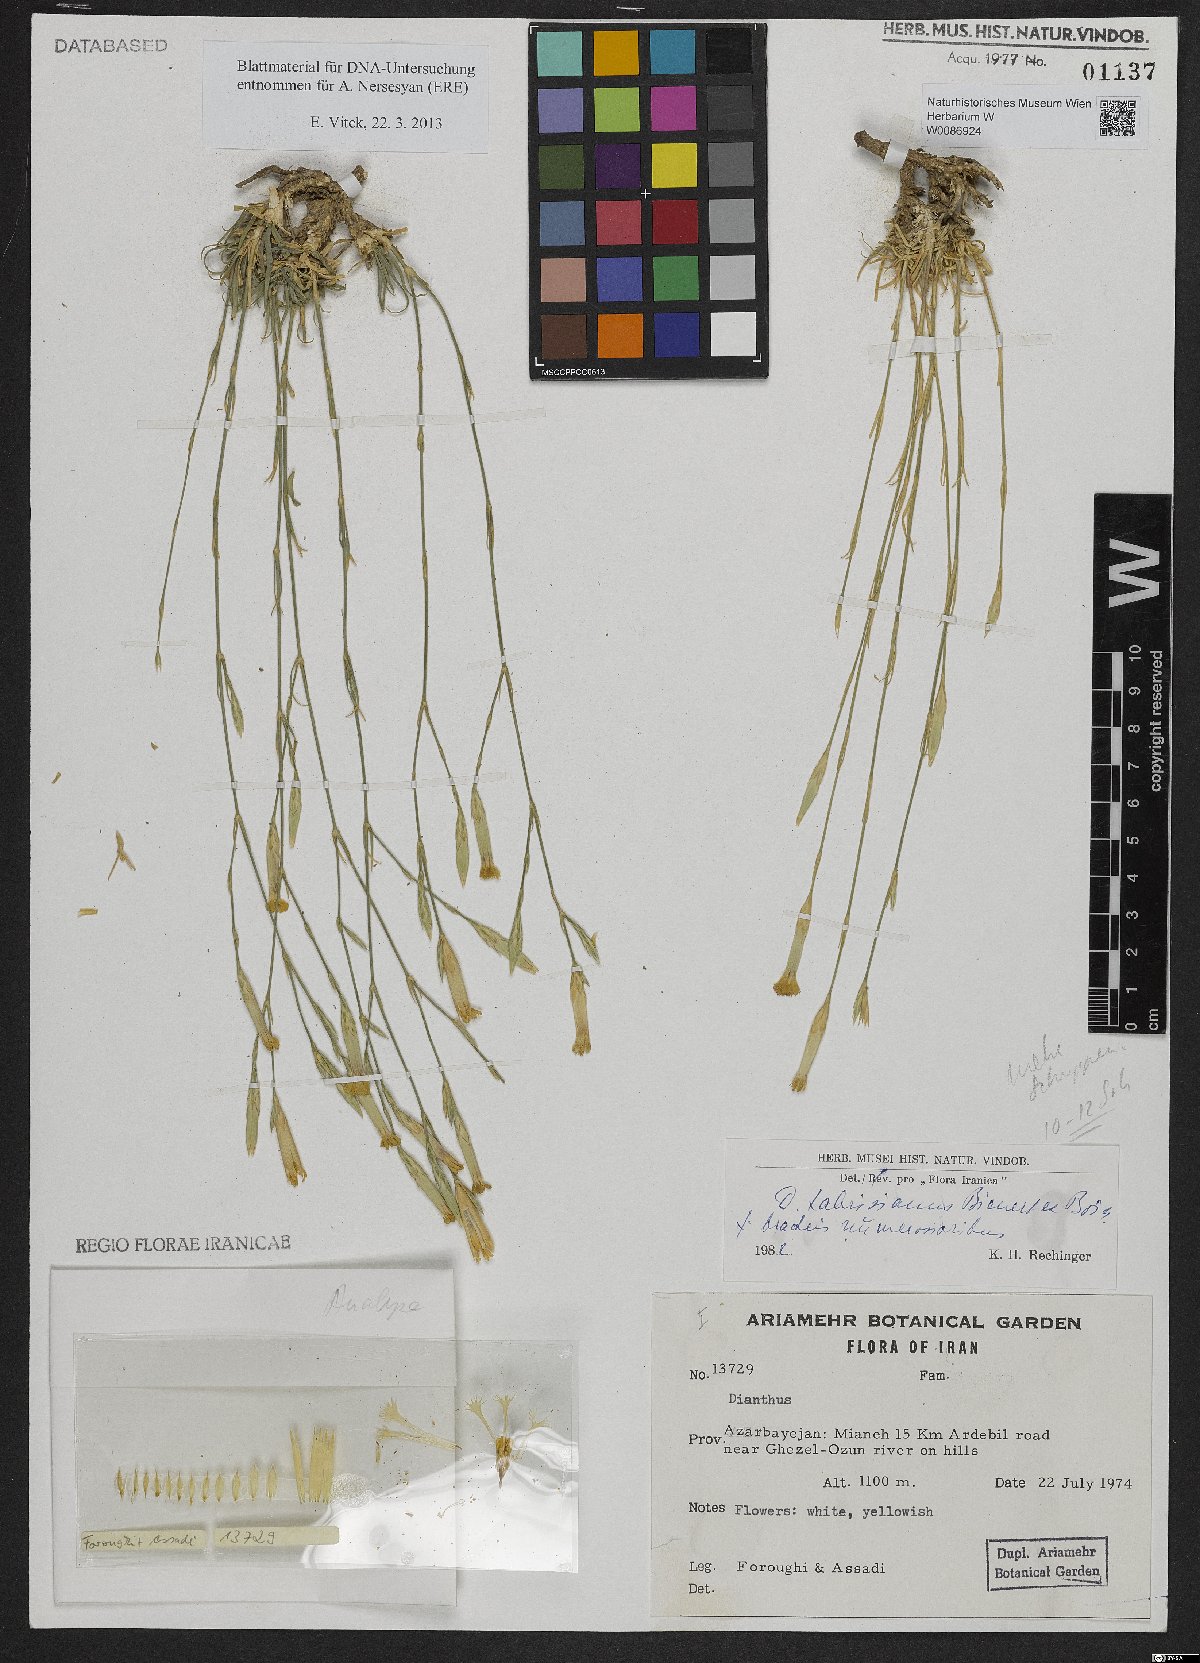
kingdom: Plantae
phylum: Tracheophyta
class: Magnoliopsida
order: Caryophyllales
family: Caryophyllaceae
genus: Dianthus
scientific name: Dianthus tabrisianus
